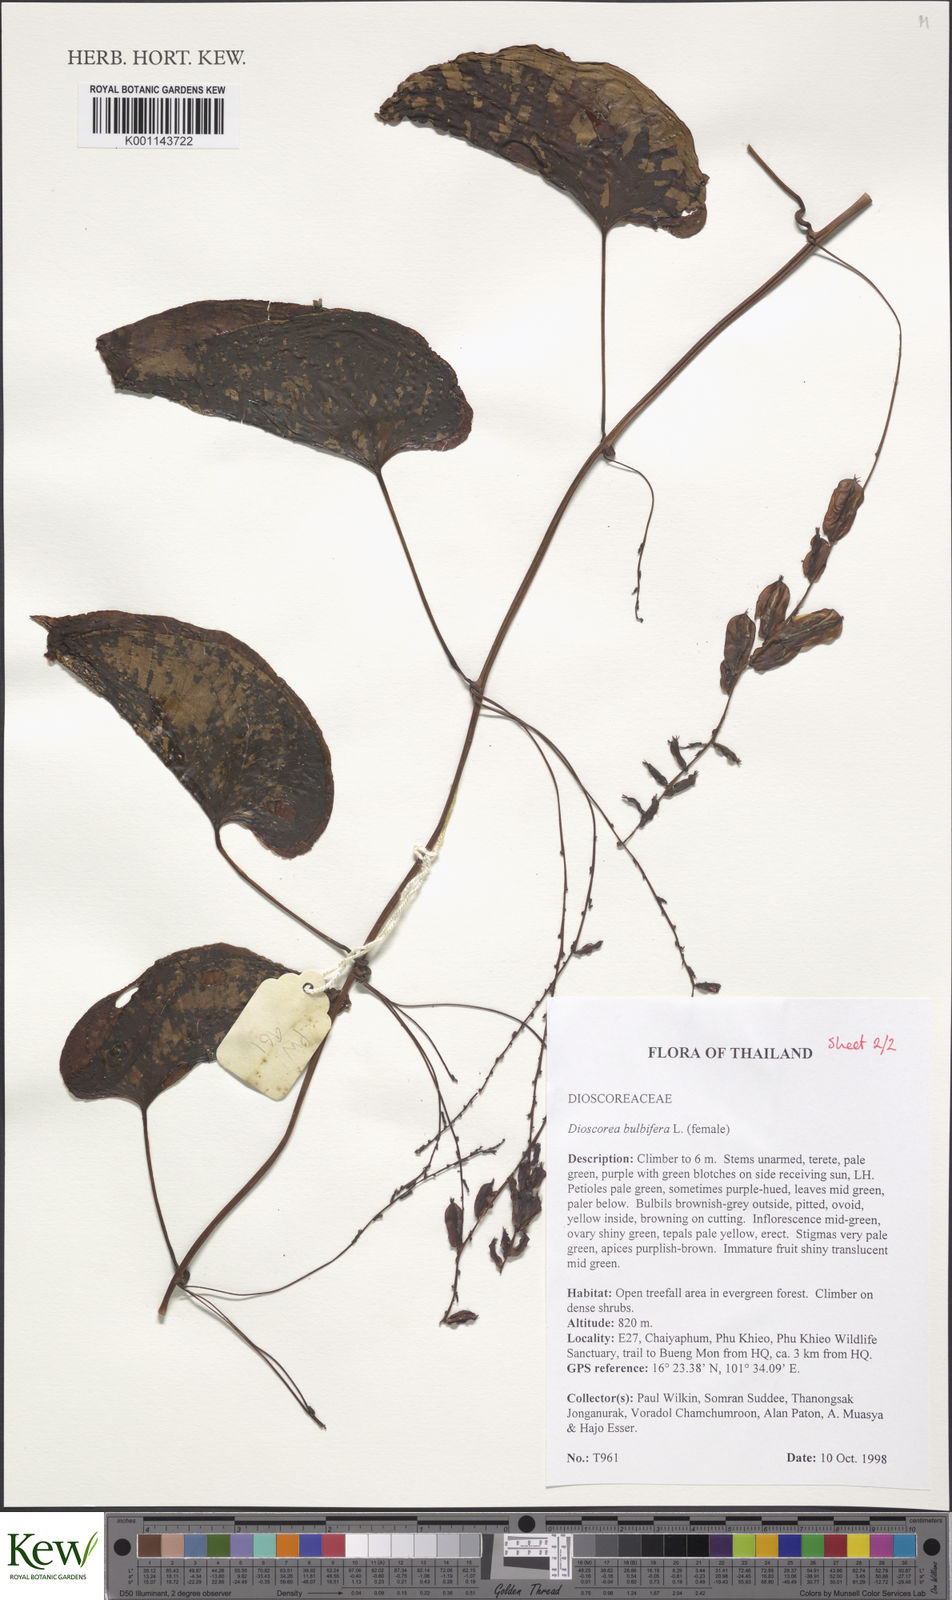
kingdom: Plantae
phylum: Tracheophyta
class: Liliopsida
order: Dioscoreales
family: Dioscoreaceae
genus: Dioscorea
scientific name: Dioscorea bulbifera
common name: Air yam
